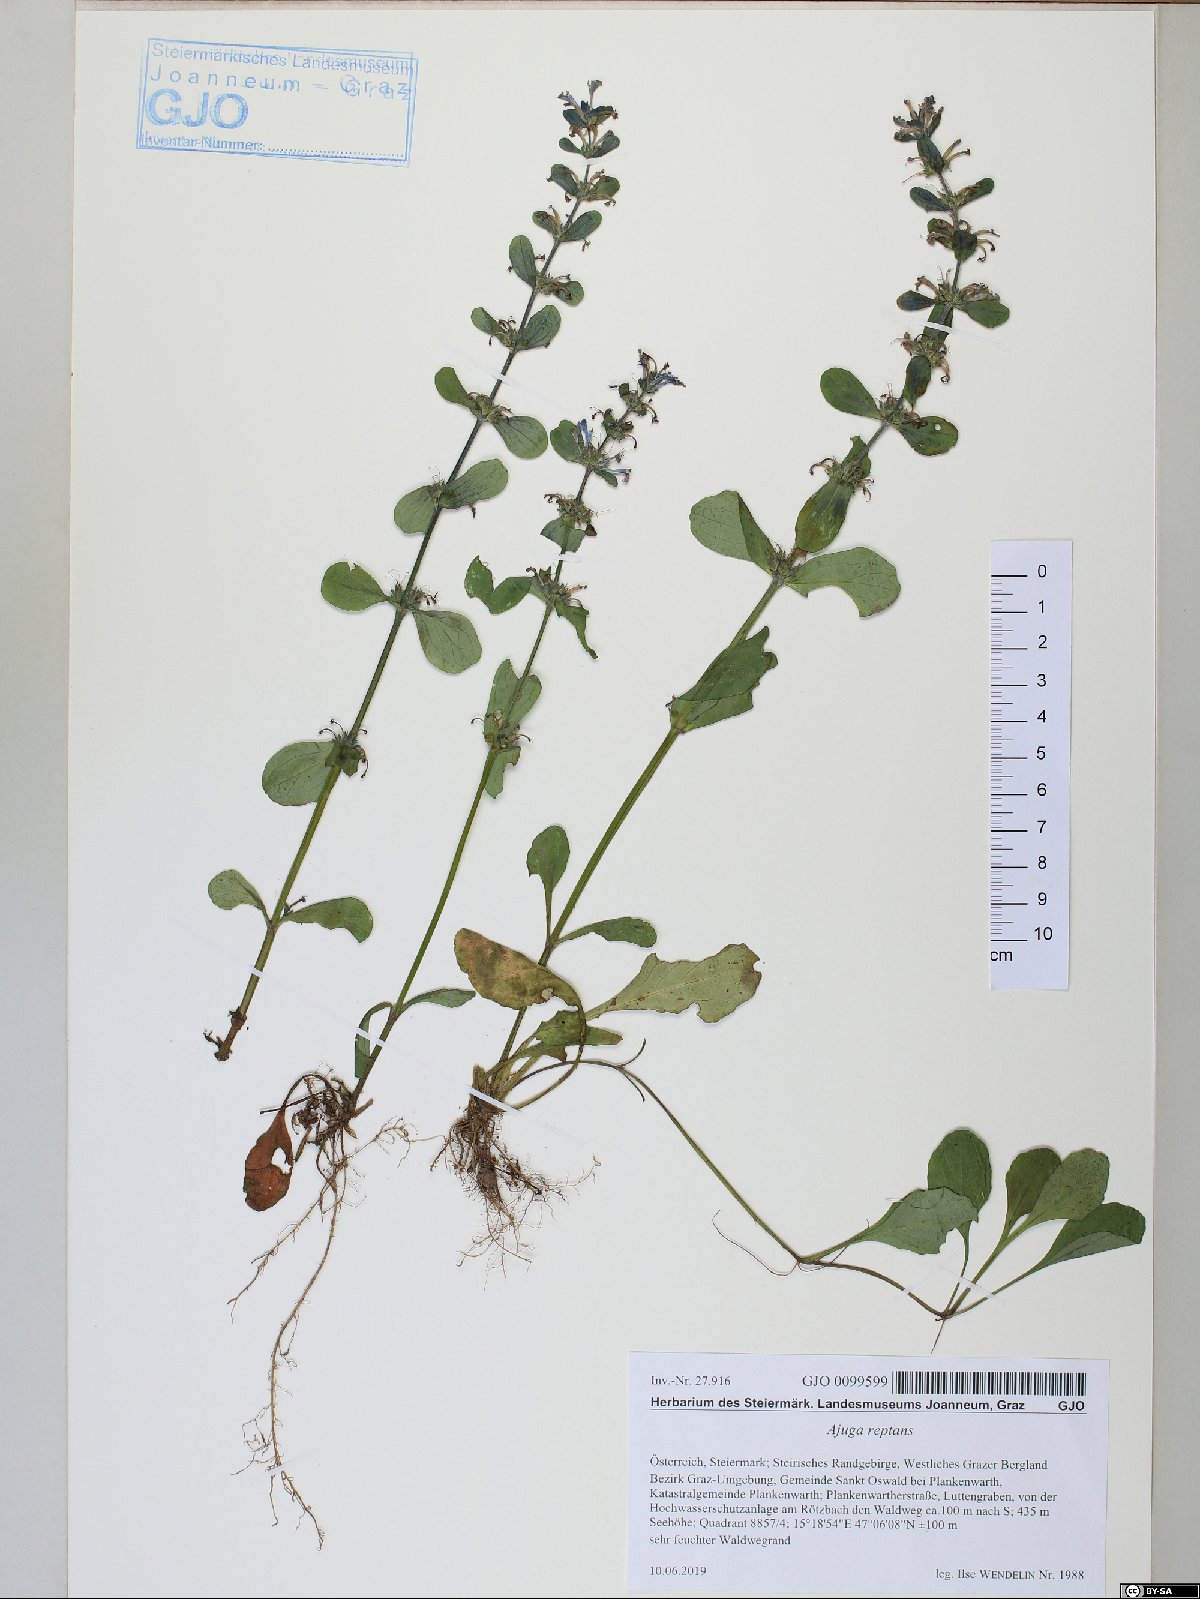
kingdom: Plantae
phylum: Tracheophyta
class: Magnoliopsida
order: Lamiales
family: Lamiaceae
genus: Ajuga
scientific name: Ajuga reptans
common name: Bugle
